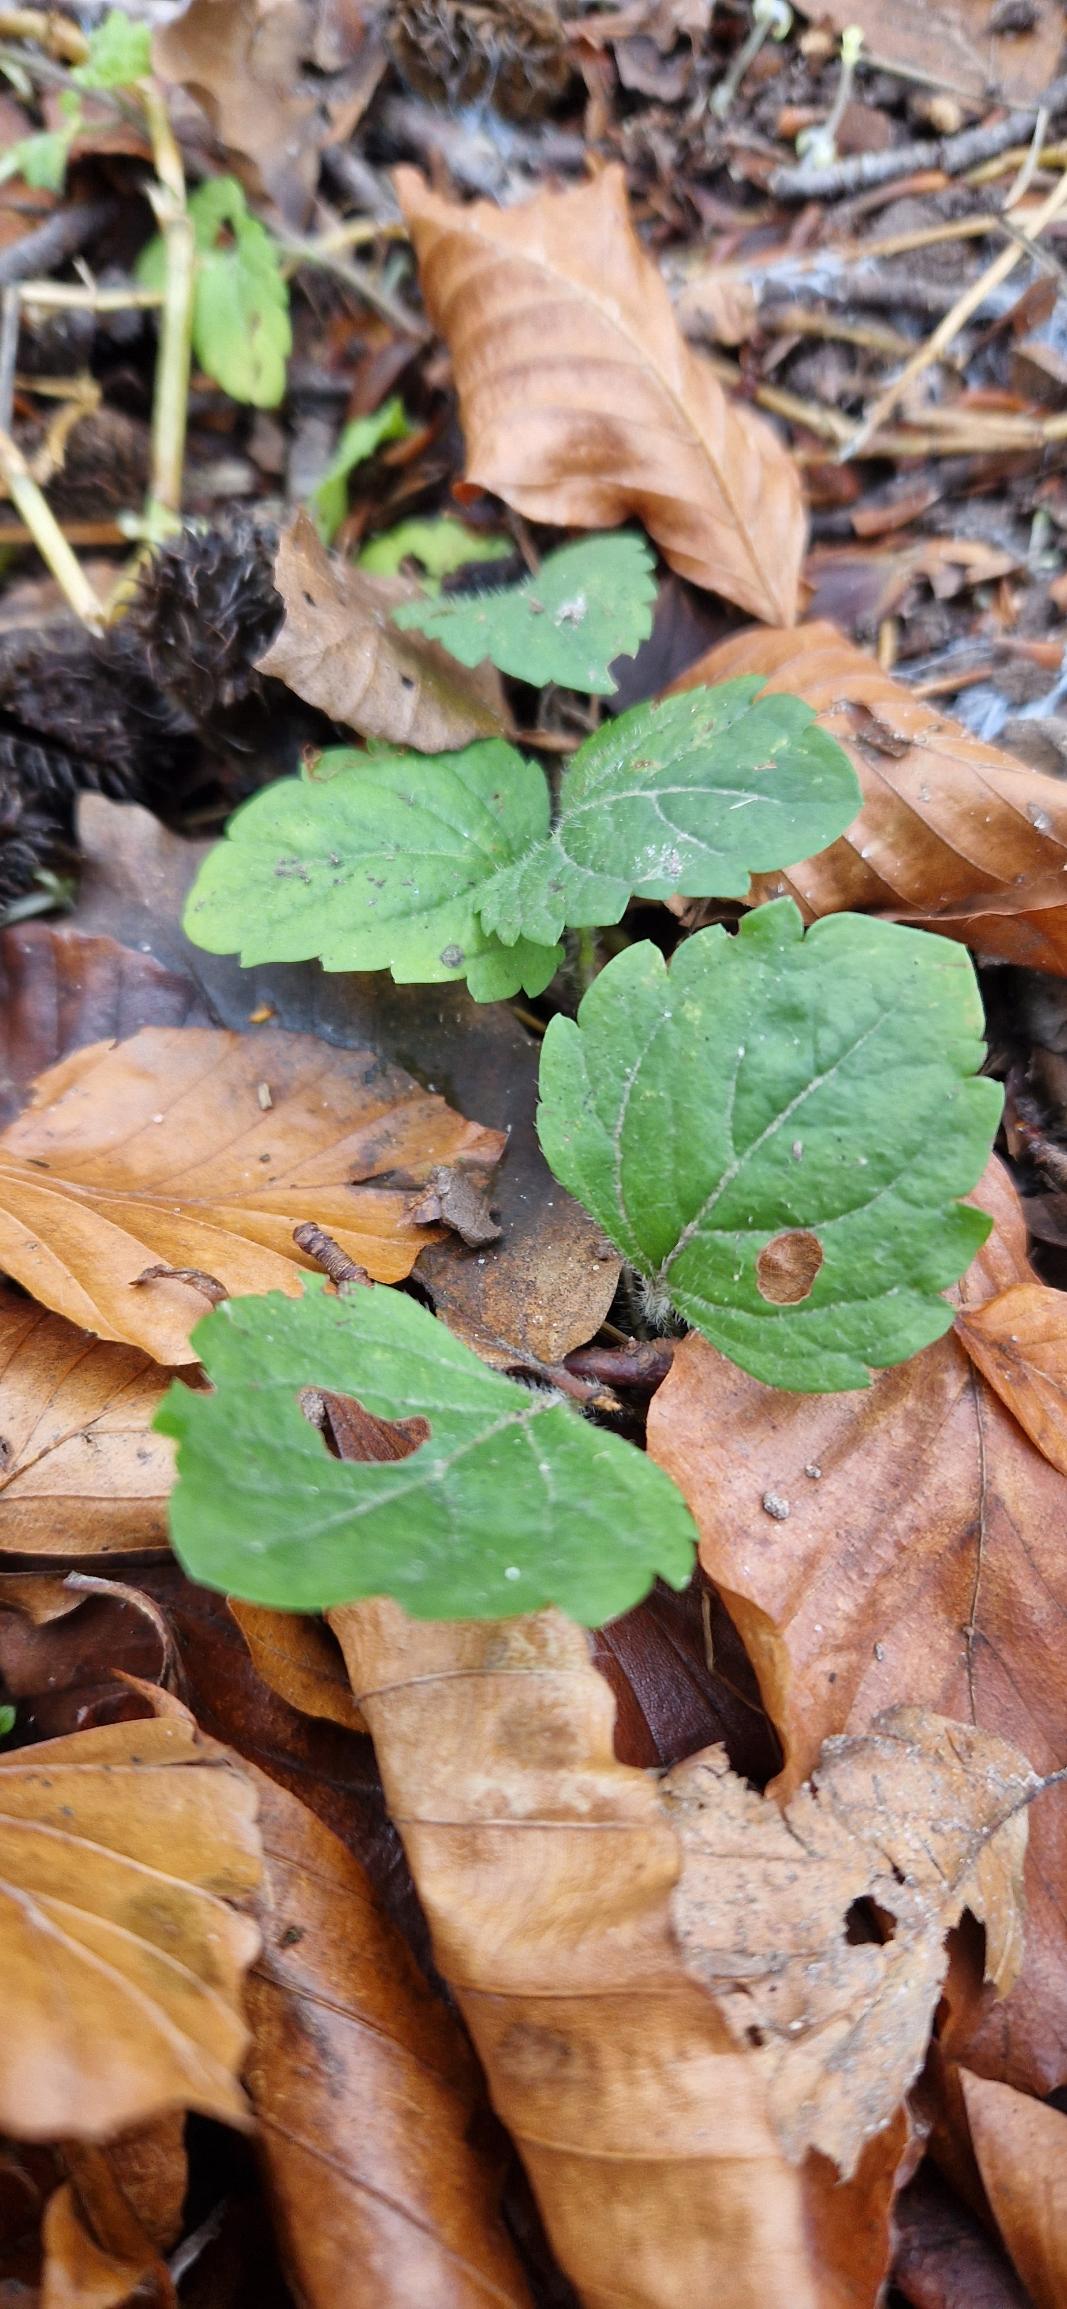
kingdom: Plantae
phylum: Tracheophyta
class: Magnoliopsida
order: Lamiales
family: Plantaginaceae
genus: Veronica
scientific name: Veronica montana
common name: Bjerg-ærenpris
